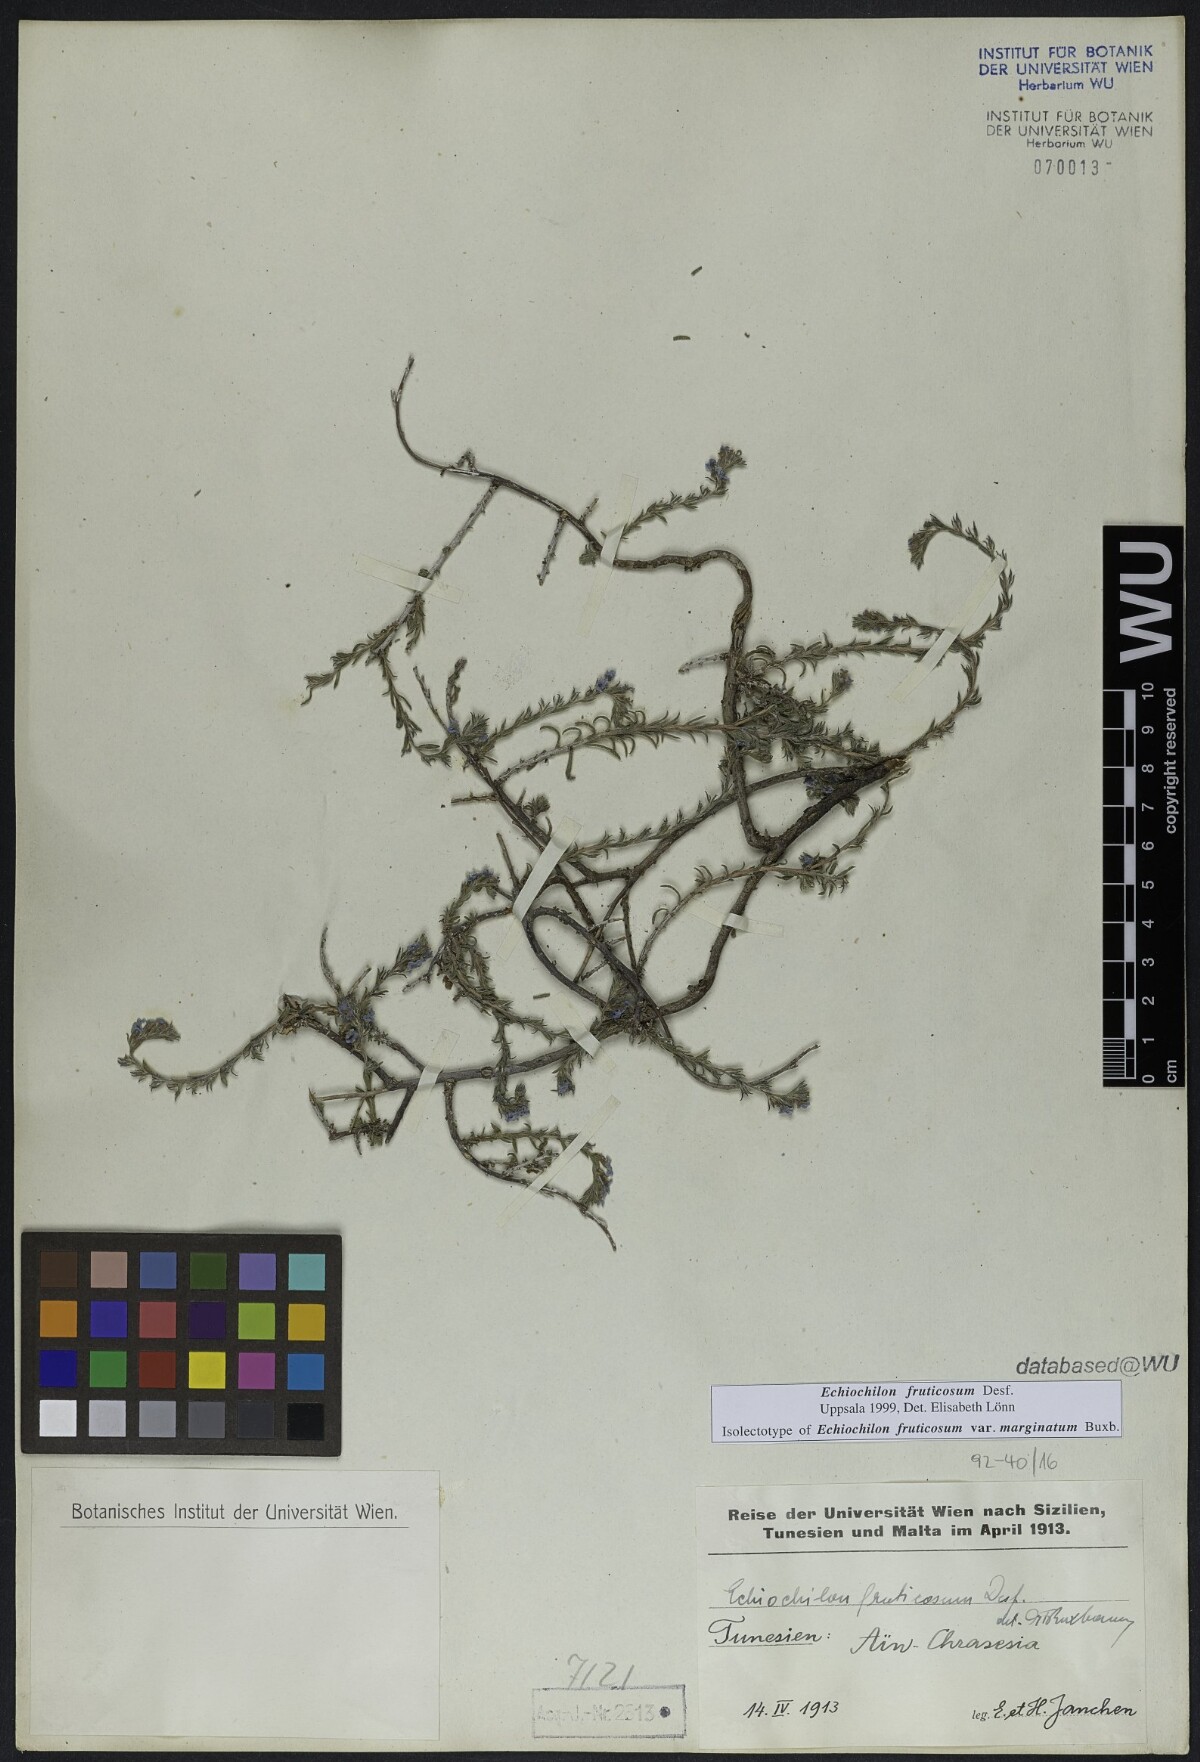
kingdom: Plantae
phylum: Tracheophyta
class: Magnoliopsida
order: Boraginales
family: Boraginaceae
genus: Echiochilon
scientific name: Echiochilon fruticosum
